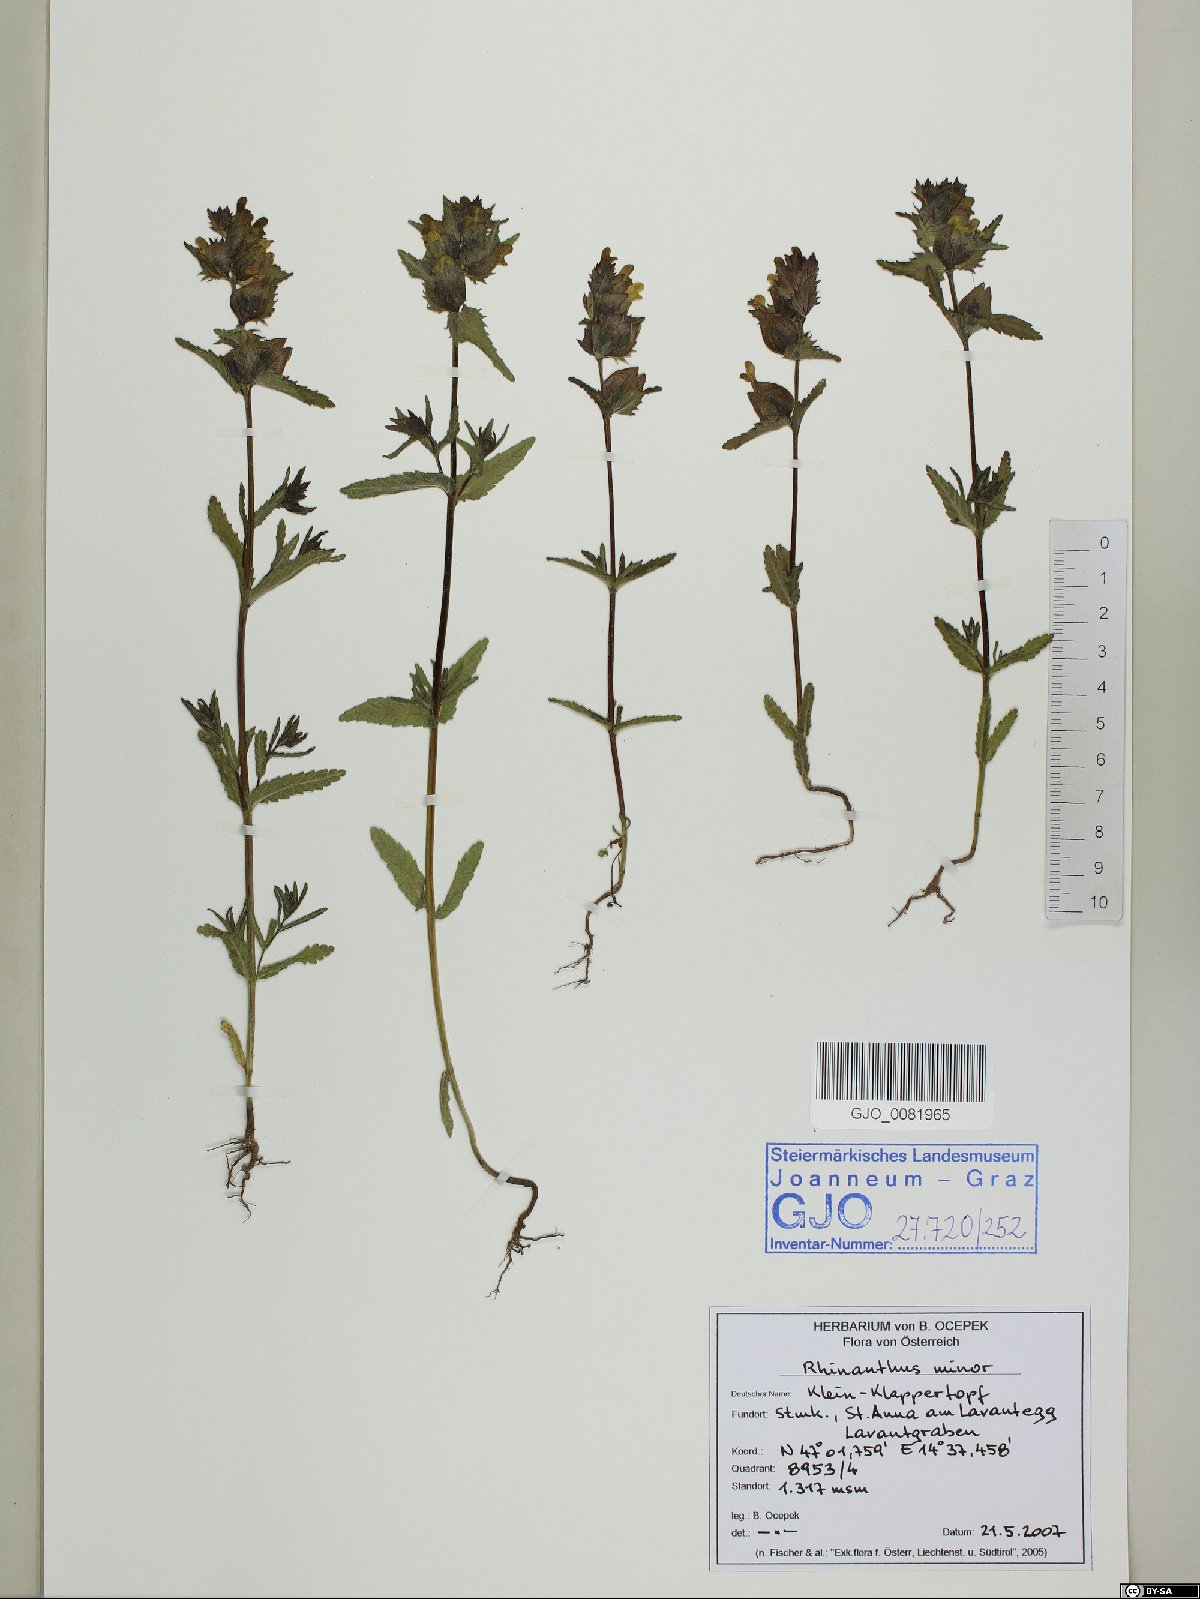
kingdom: Plantae
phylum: Tracheophyta
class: Magnoliopsida
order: Lamiales
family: Orobanchaceae
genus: Rhinanthus
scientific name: Rhinanthus minor
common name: Yellow-rattle
